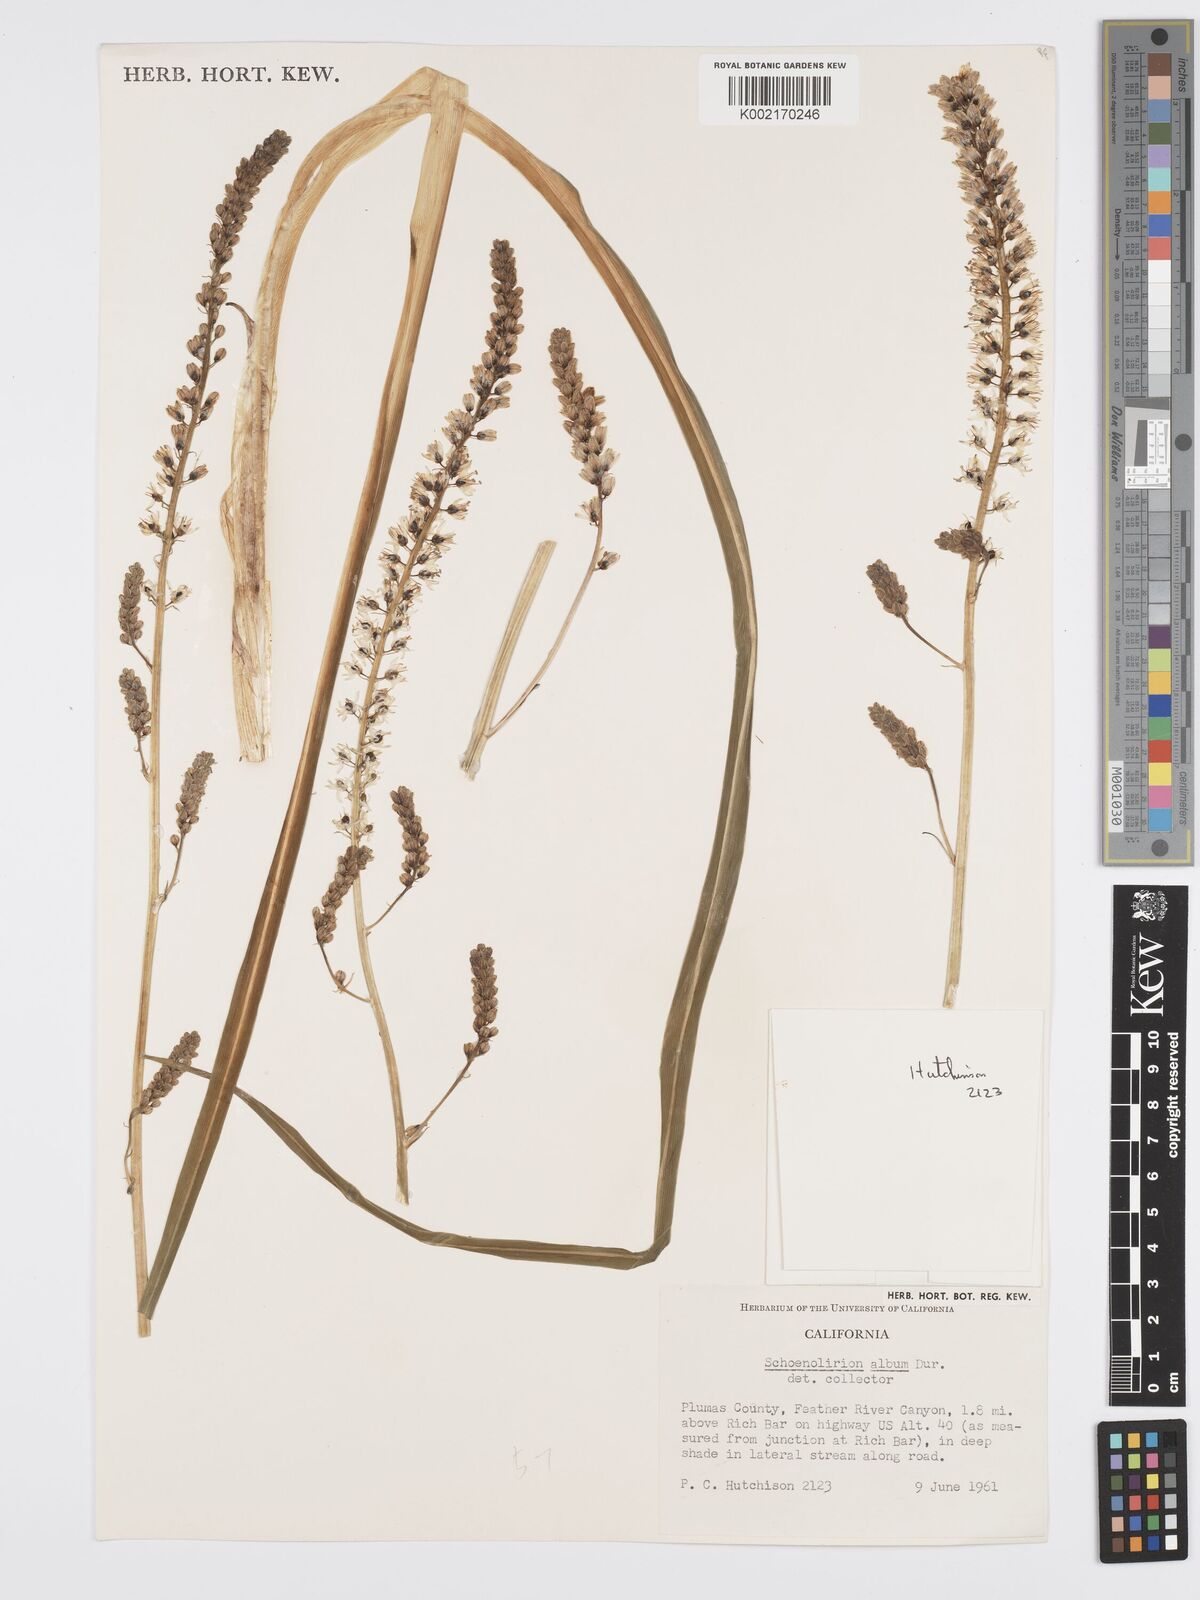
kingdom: Plantae
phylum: Tracheophyta
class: Liliopsida
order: Asparagales
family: Asparagaceae
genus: Hastingsia
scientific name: Hastingsia alba
